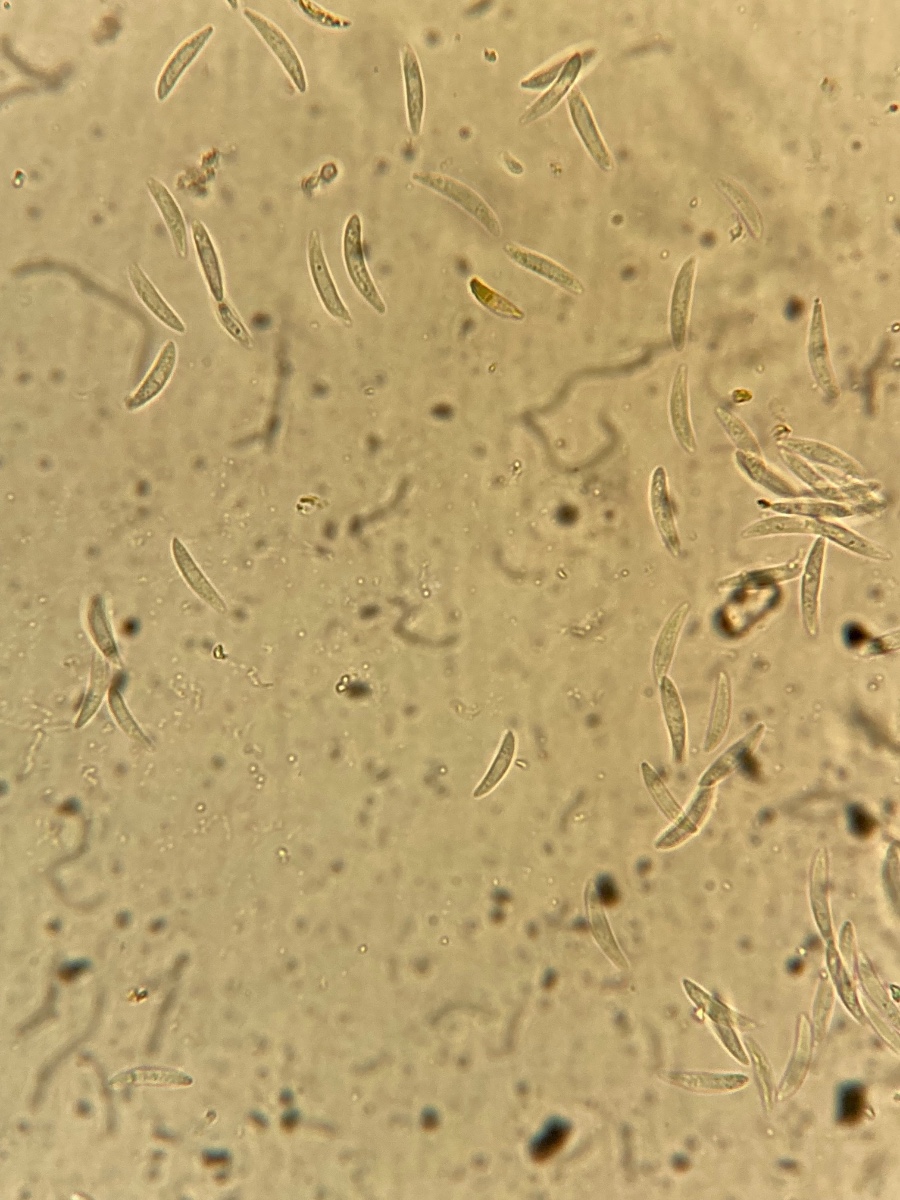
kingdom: Fungi
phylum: Ascomycota
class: Leotiomycetes
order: Helotiales
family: Dermateaceae
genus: Dermea
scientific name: Dermea ariae
